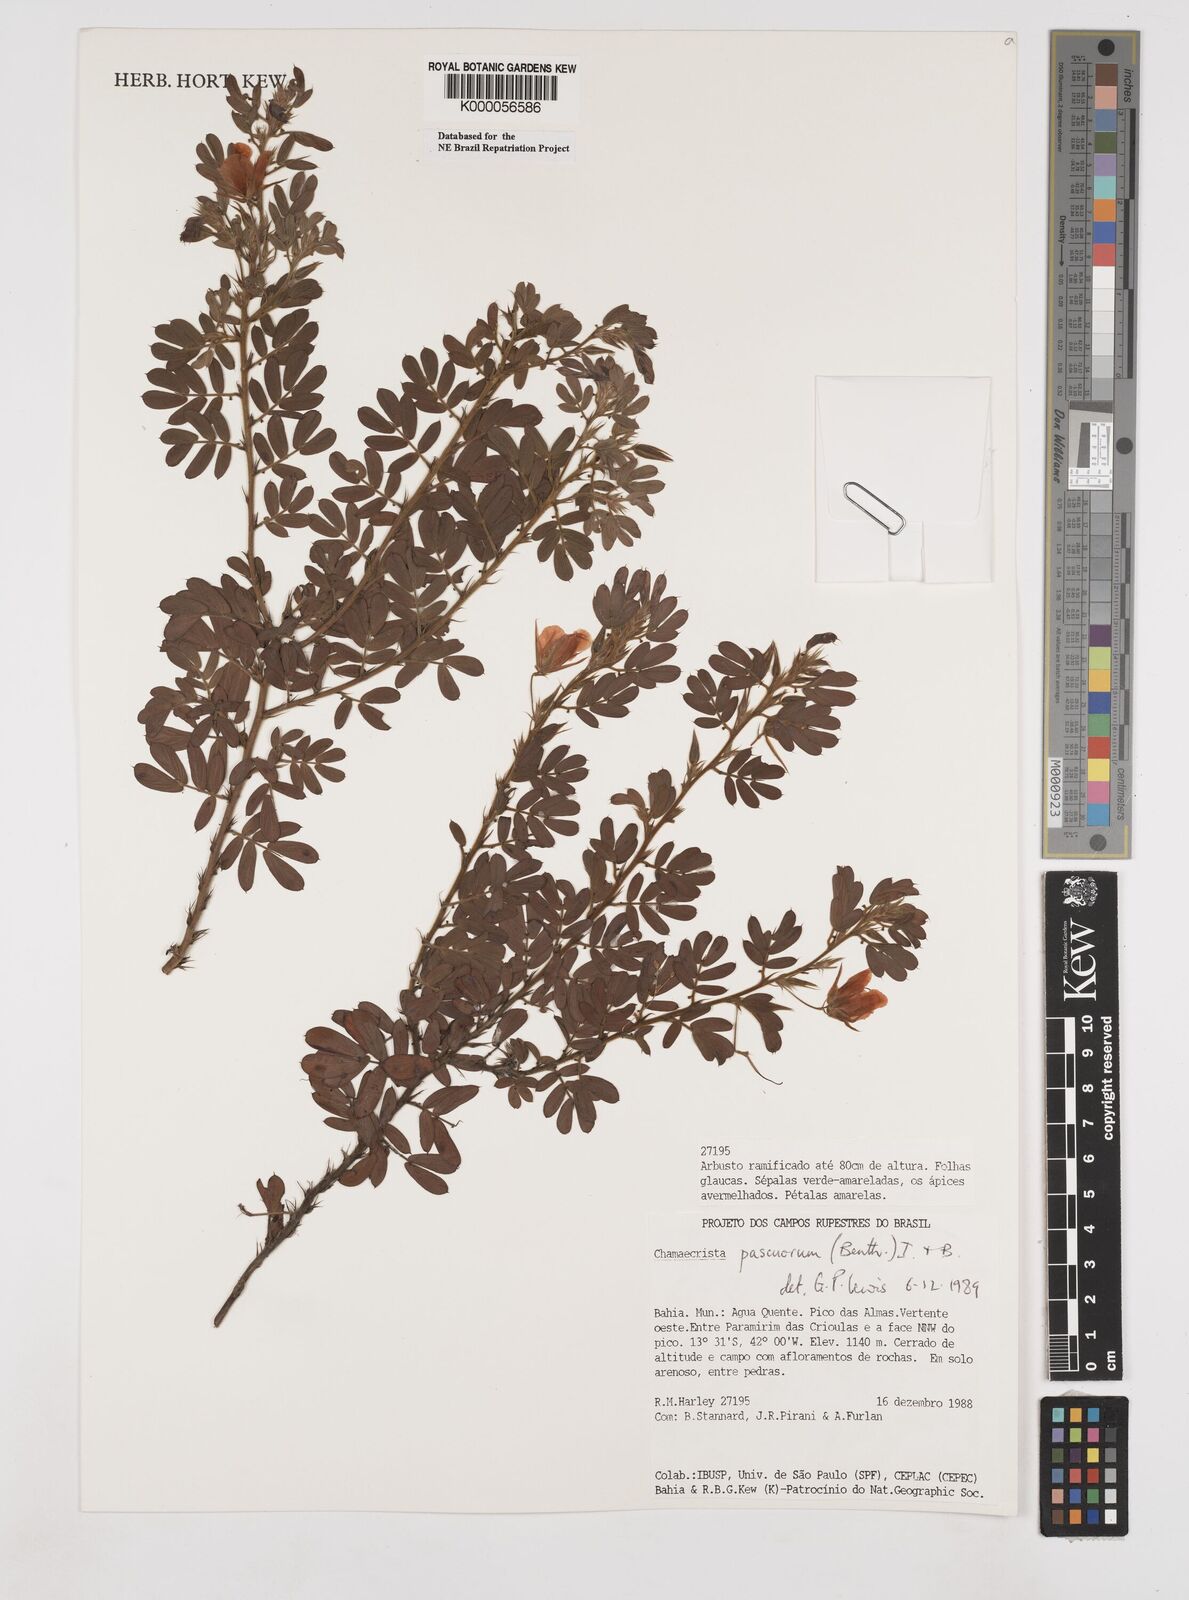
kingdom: Plantae
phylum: Tracheophyta
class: Magnoliopsida
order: Fabales
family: Fabaceae
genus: Chamaecrista
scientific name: Chamaecrista pascuorum
